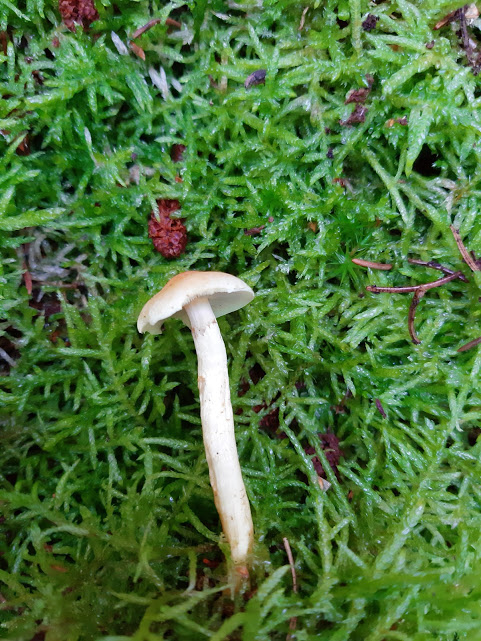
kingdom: Fungi
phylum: Basidiomycota
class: Agaricomycetes
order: Agaricales
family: Strophariaceae
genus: Hypholoma
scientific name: Hypholoma capnoides
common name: gran-svovlhat
